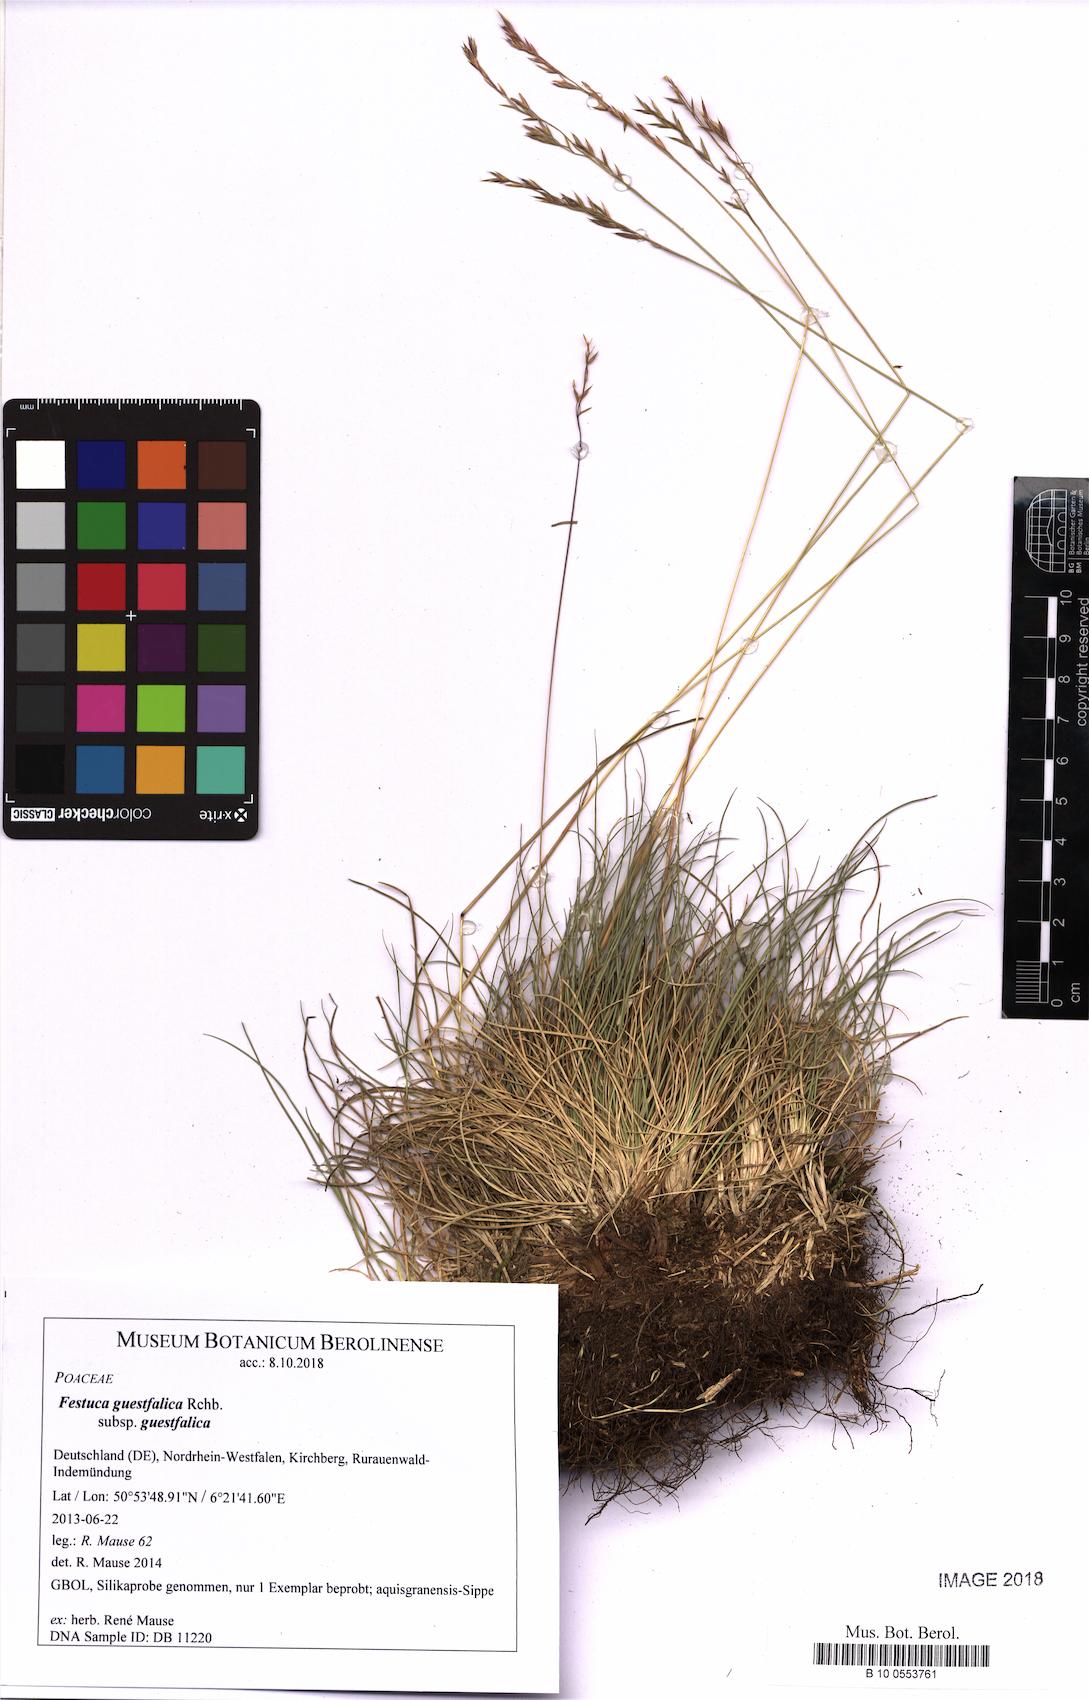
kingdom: Plantae
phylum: Tracheophyta
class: Liliopsida
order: Poales
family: Poaceae
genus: Festuca
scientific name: Festuca guestfalica
